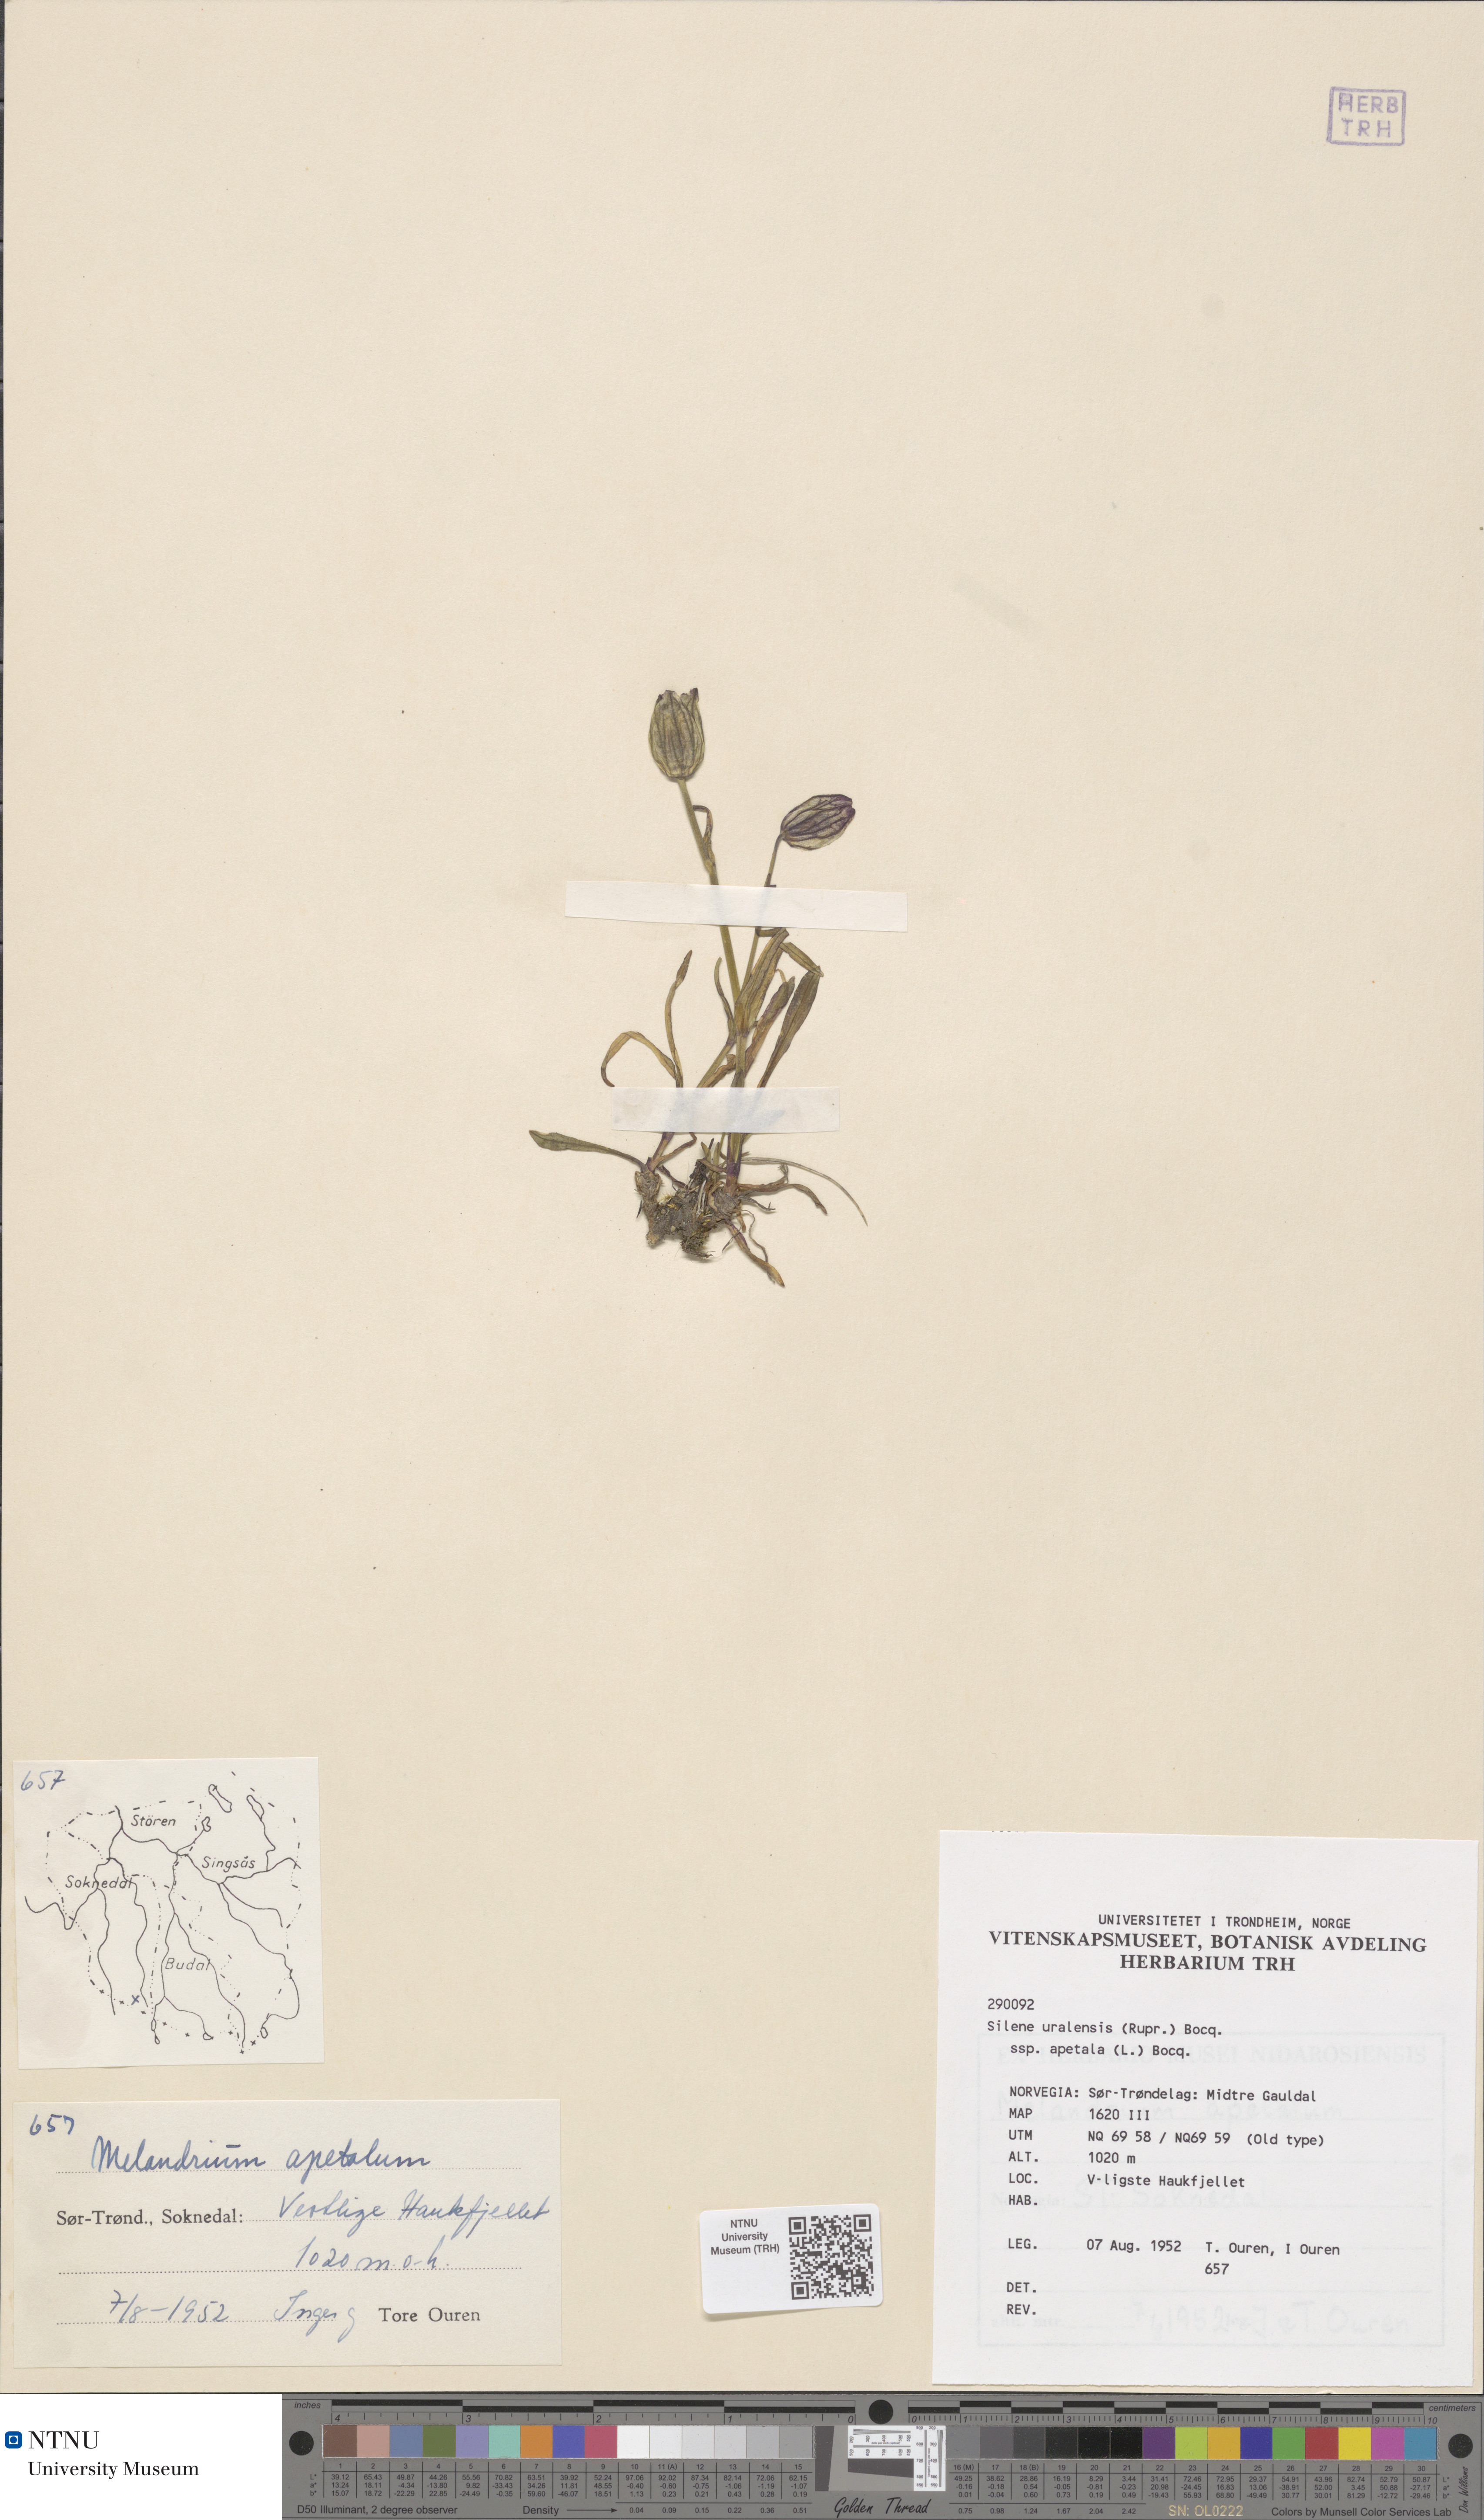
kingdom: Plantae
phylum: Tracheophyta
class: Magnoliopsida
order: Caryophyllales
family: Caryophyllaceae
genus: Silene
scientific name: Silene wahlbergella
